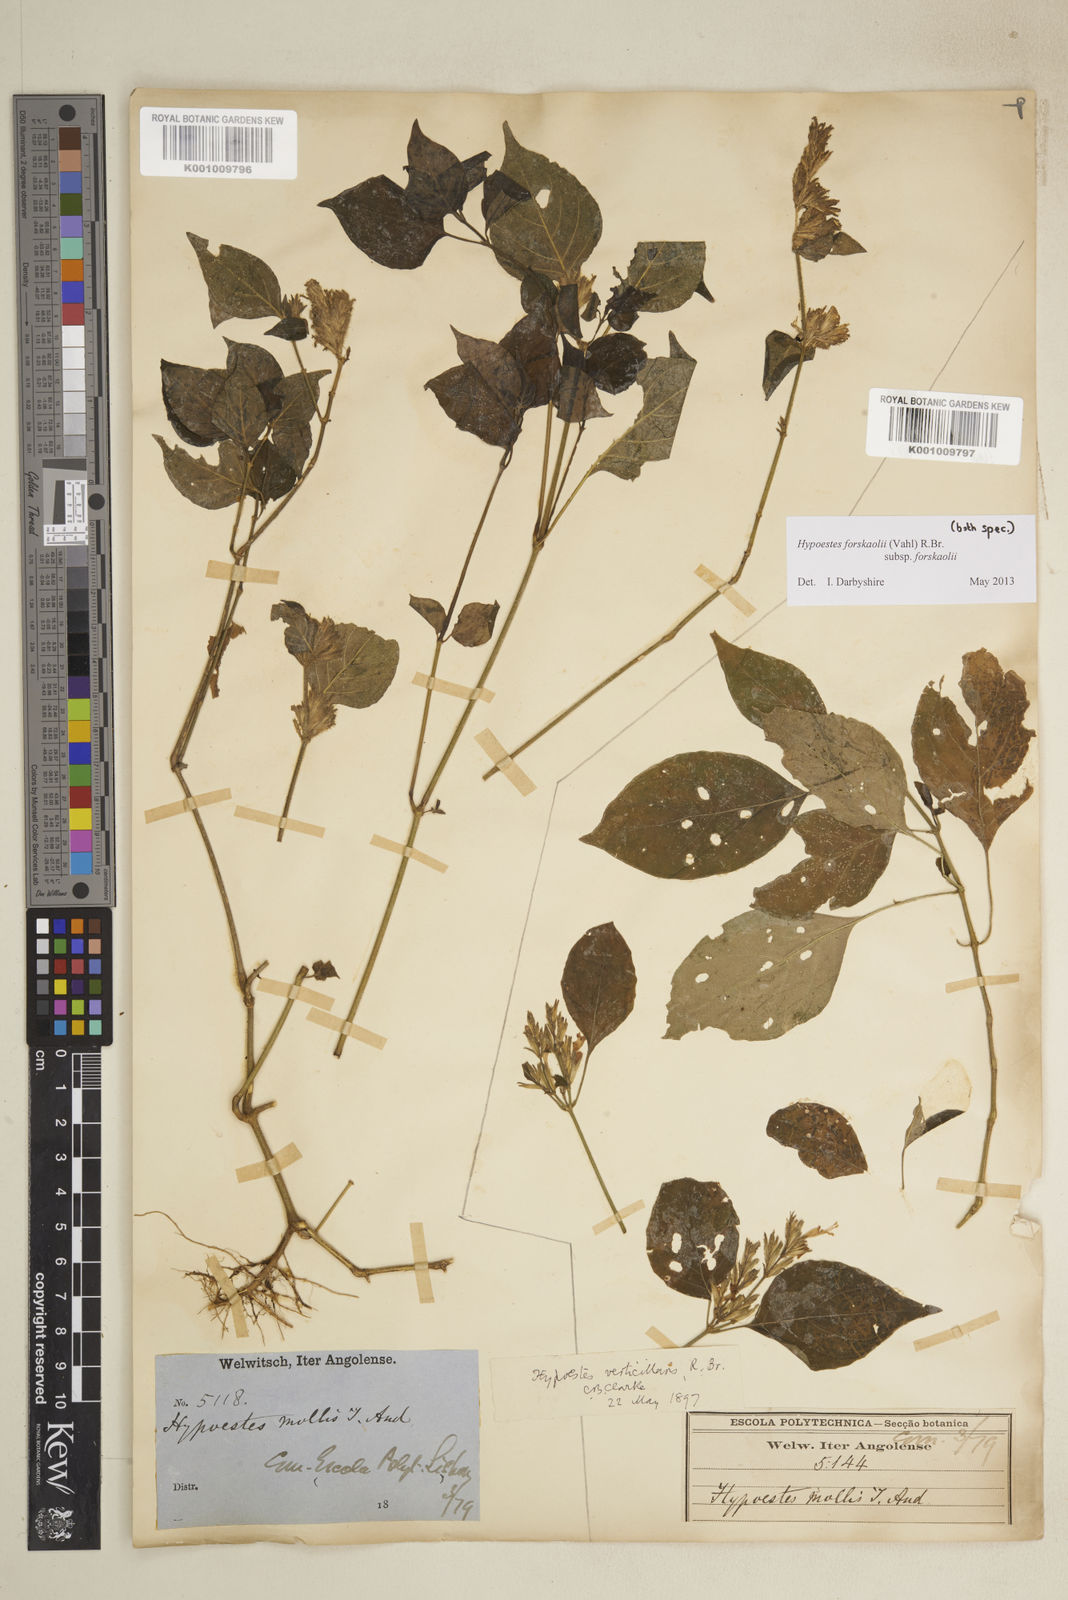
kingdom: Plantae
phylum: Tracheophyta
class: Magnoliopsida
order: Lamiales
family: Acanthaceae
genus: Hypoestes
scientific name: Hypoestes forskaolii
